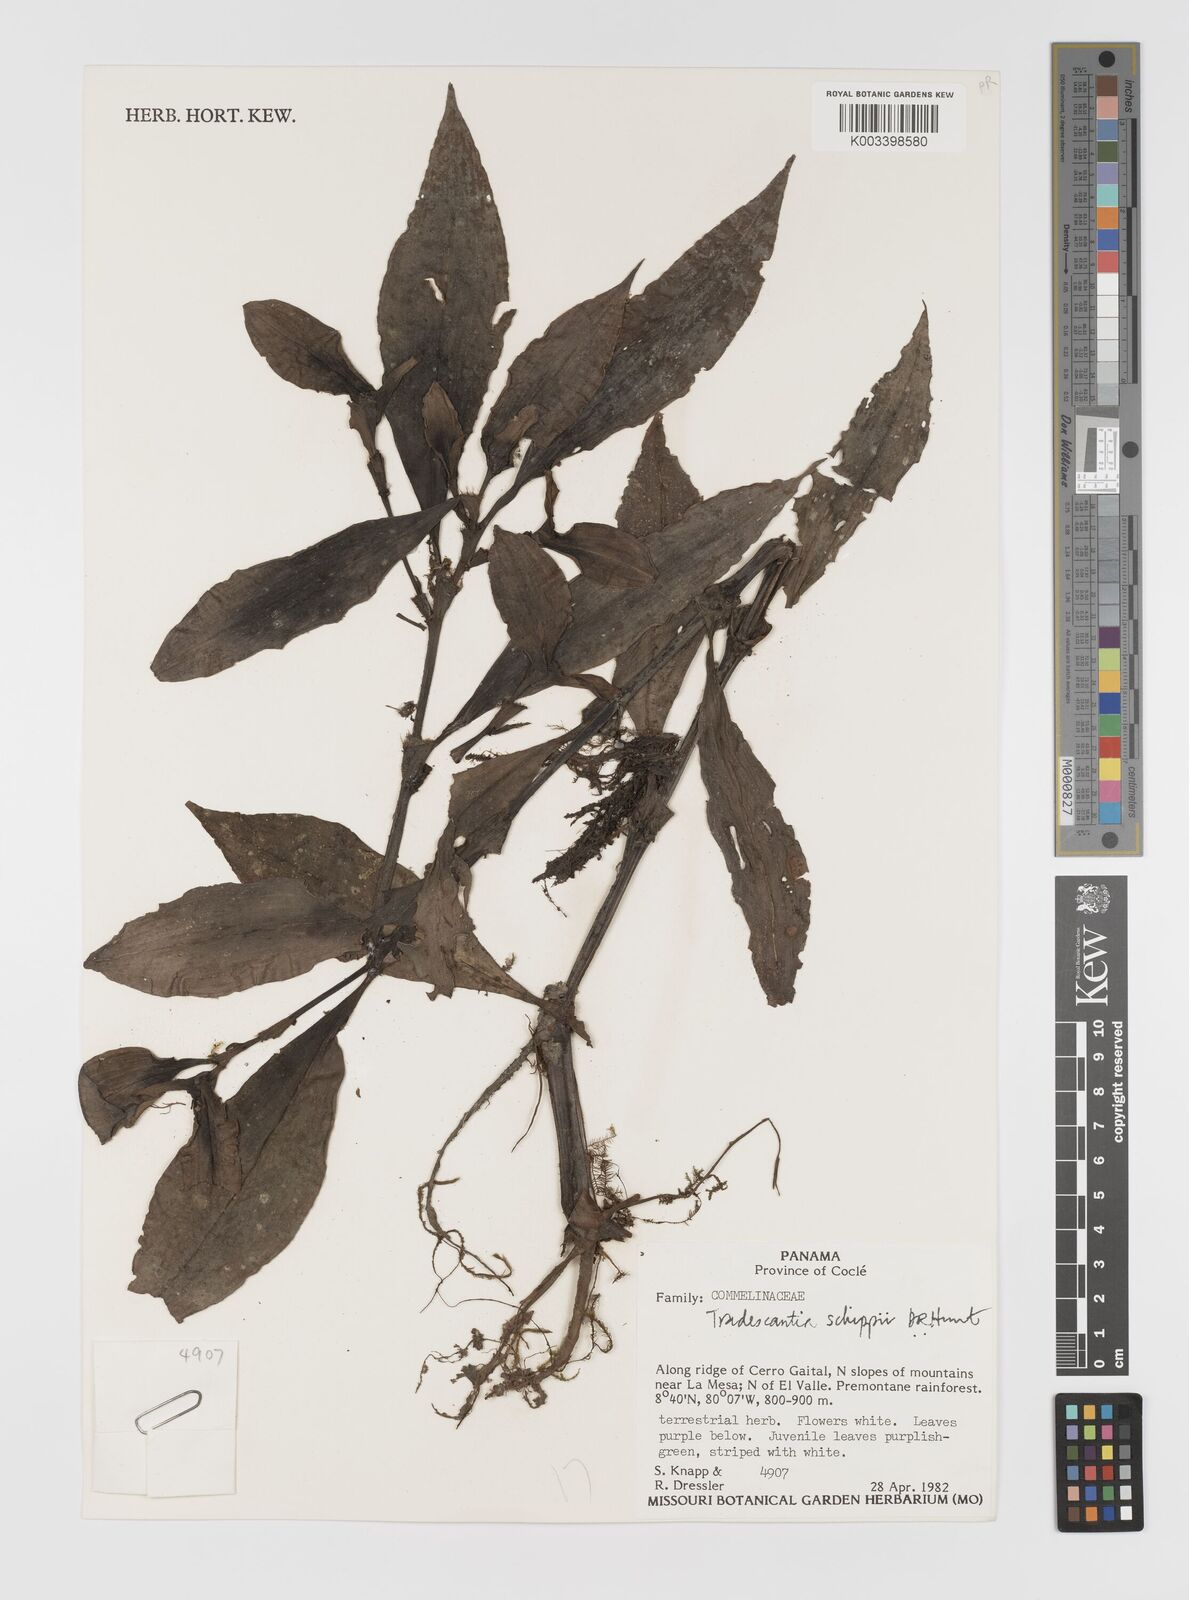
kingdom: Plantae
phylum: Tracheophyta
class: Liliopsida
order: Commelinales
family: Commelinaceae
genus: Tradescantia
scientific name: Tradescantia schippii
